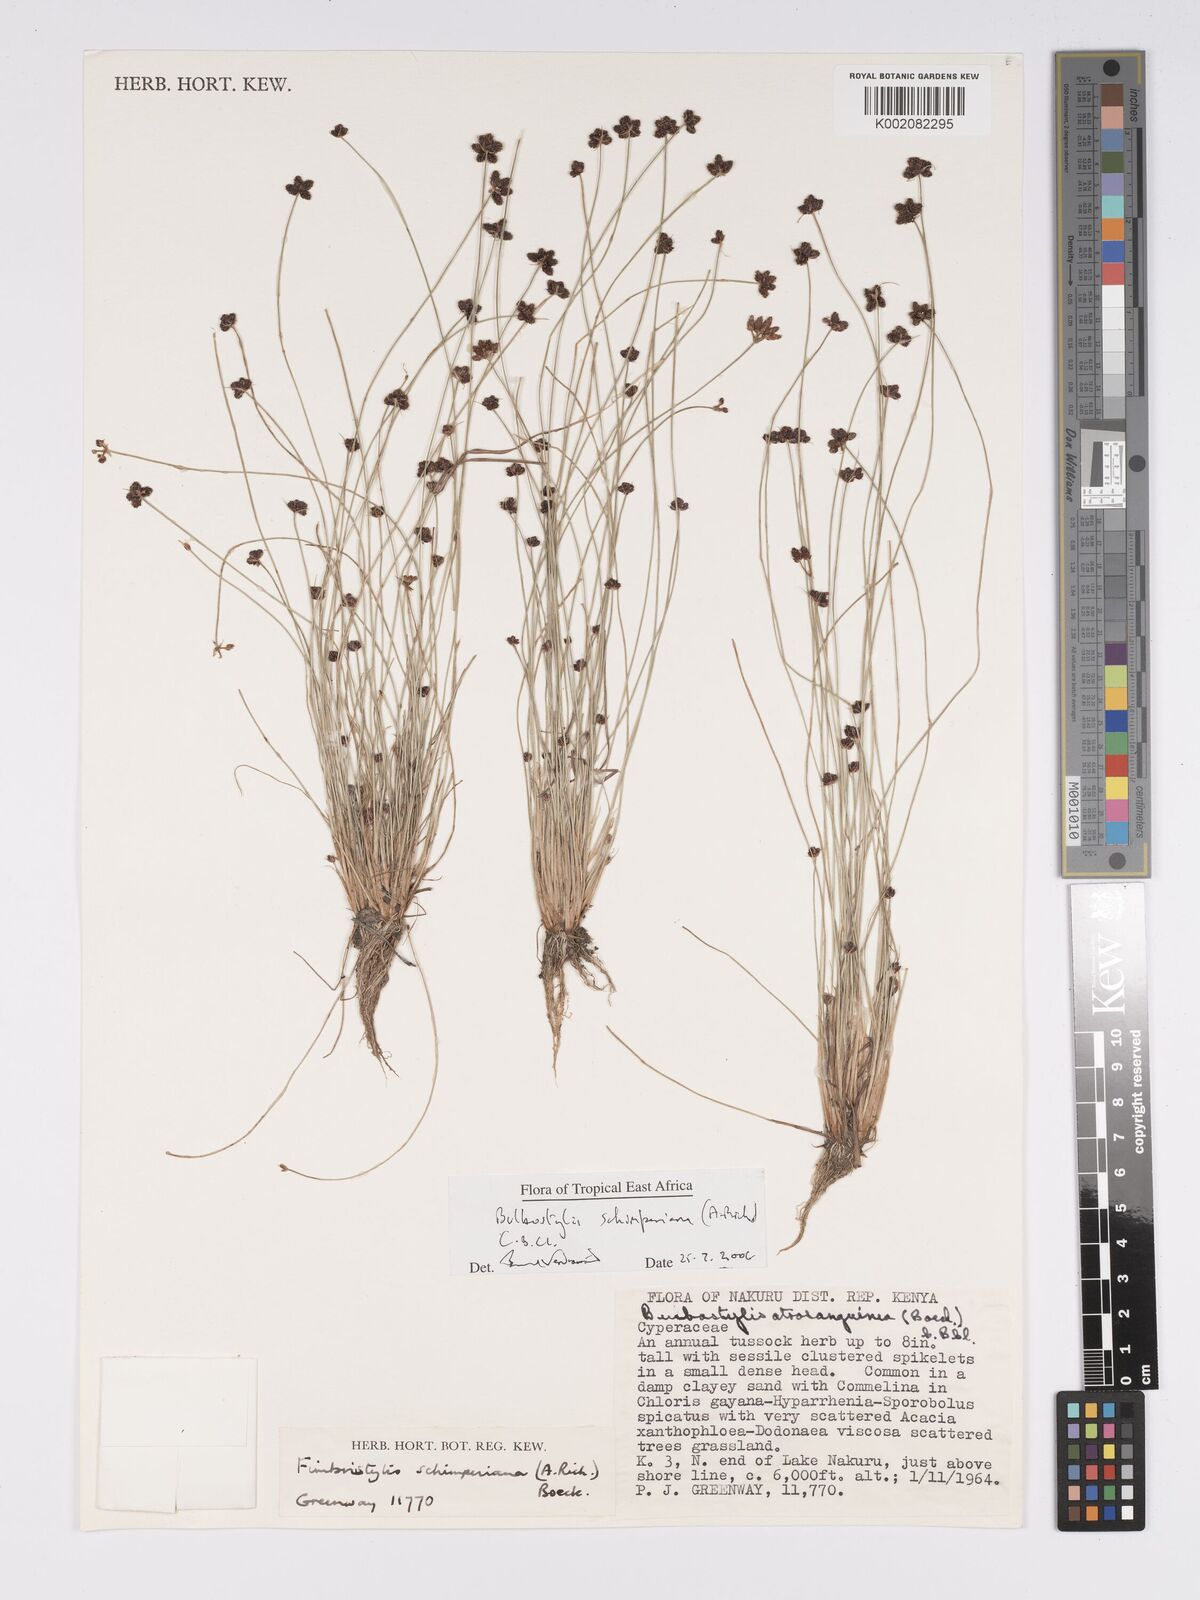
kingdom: Plantae
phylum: Tracheophyta
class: Liliopsida
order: Poales
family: Cyperaceae
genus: Bulbostylis
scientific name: Bulbostylis schimperiana
